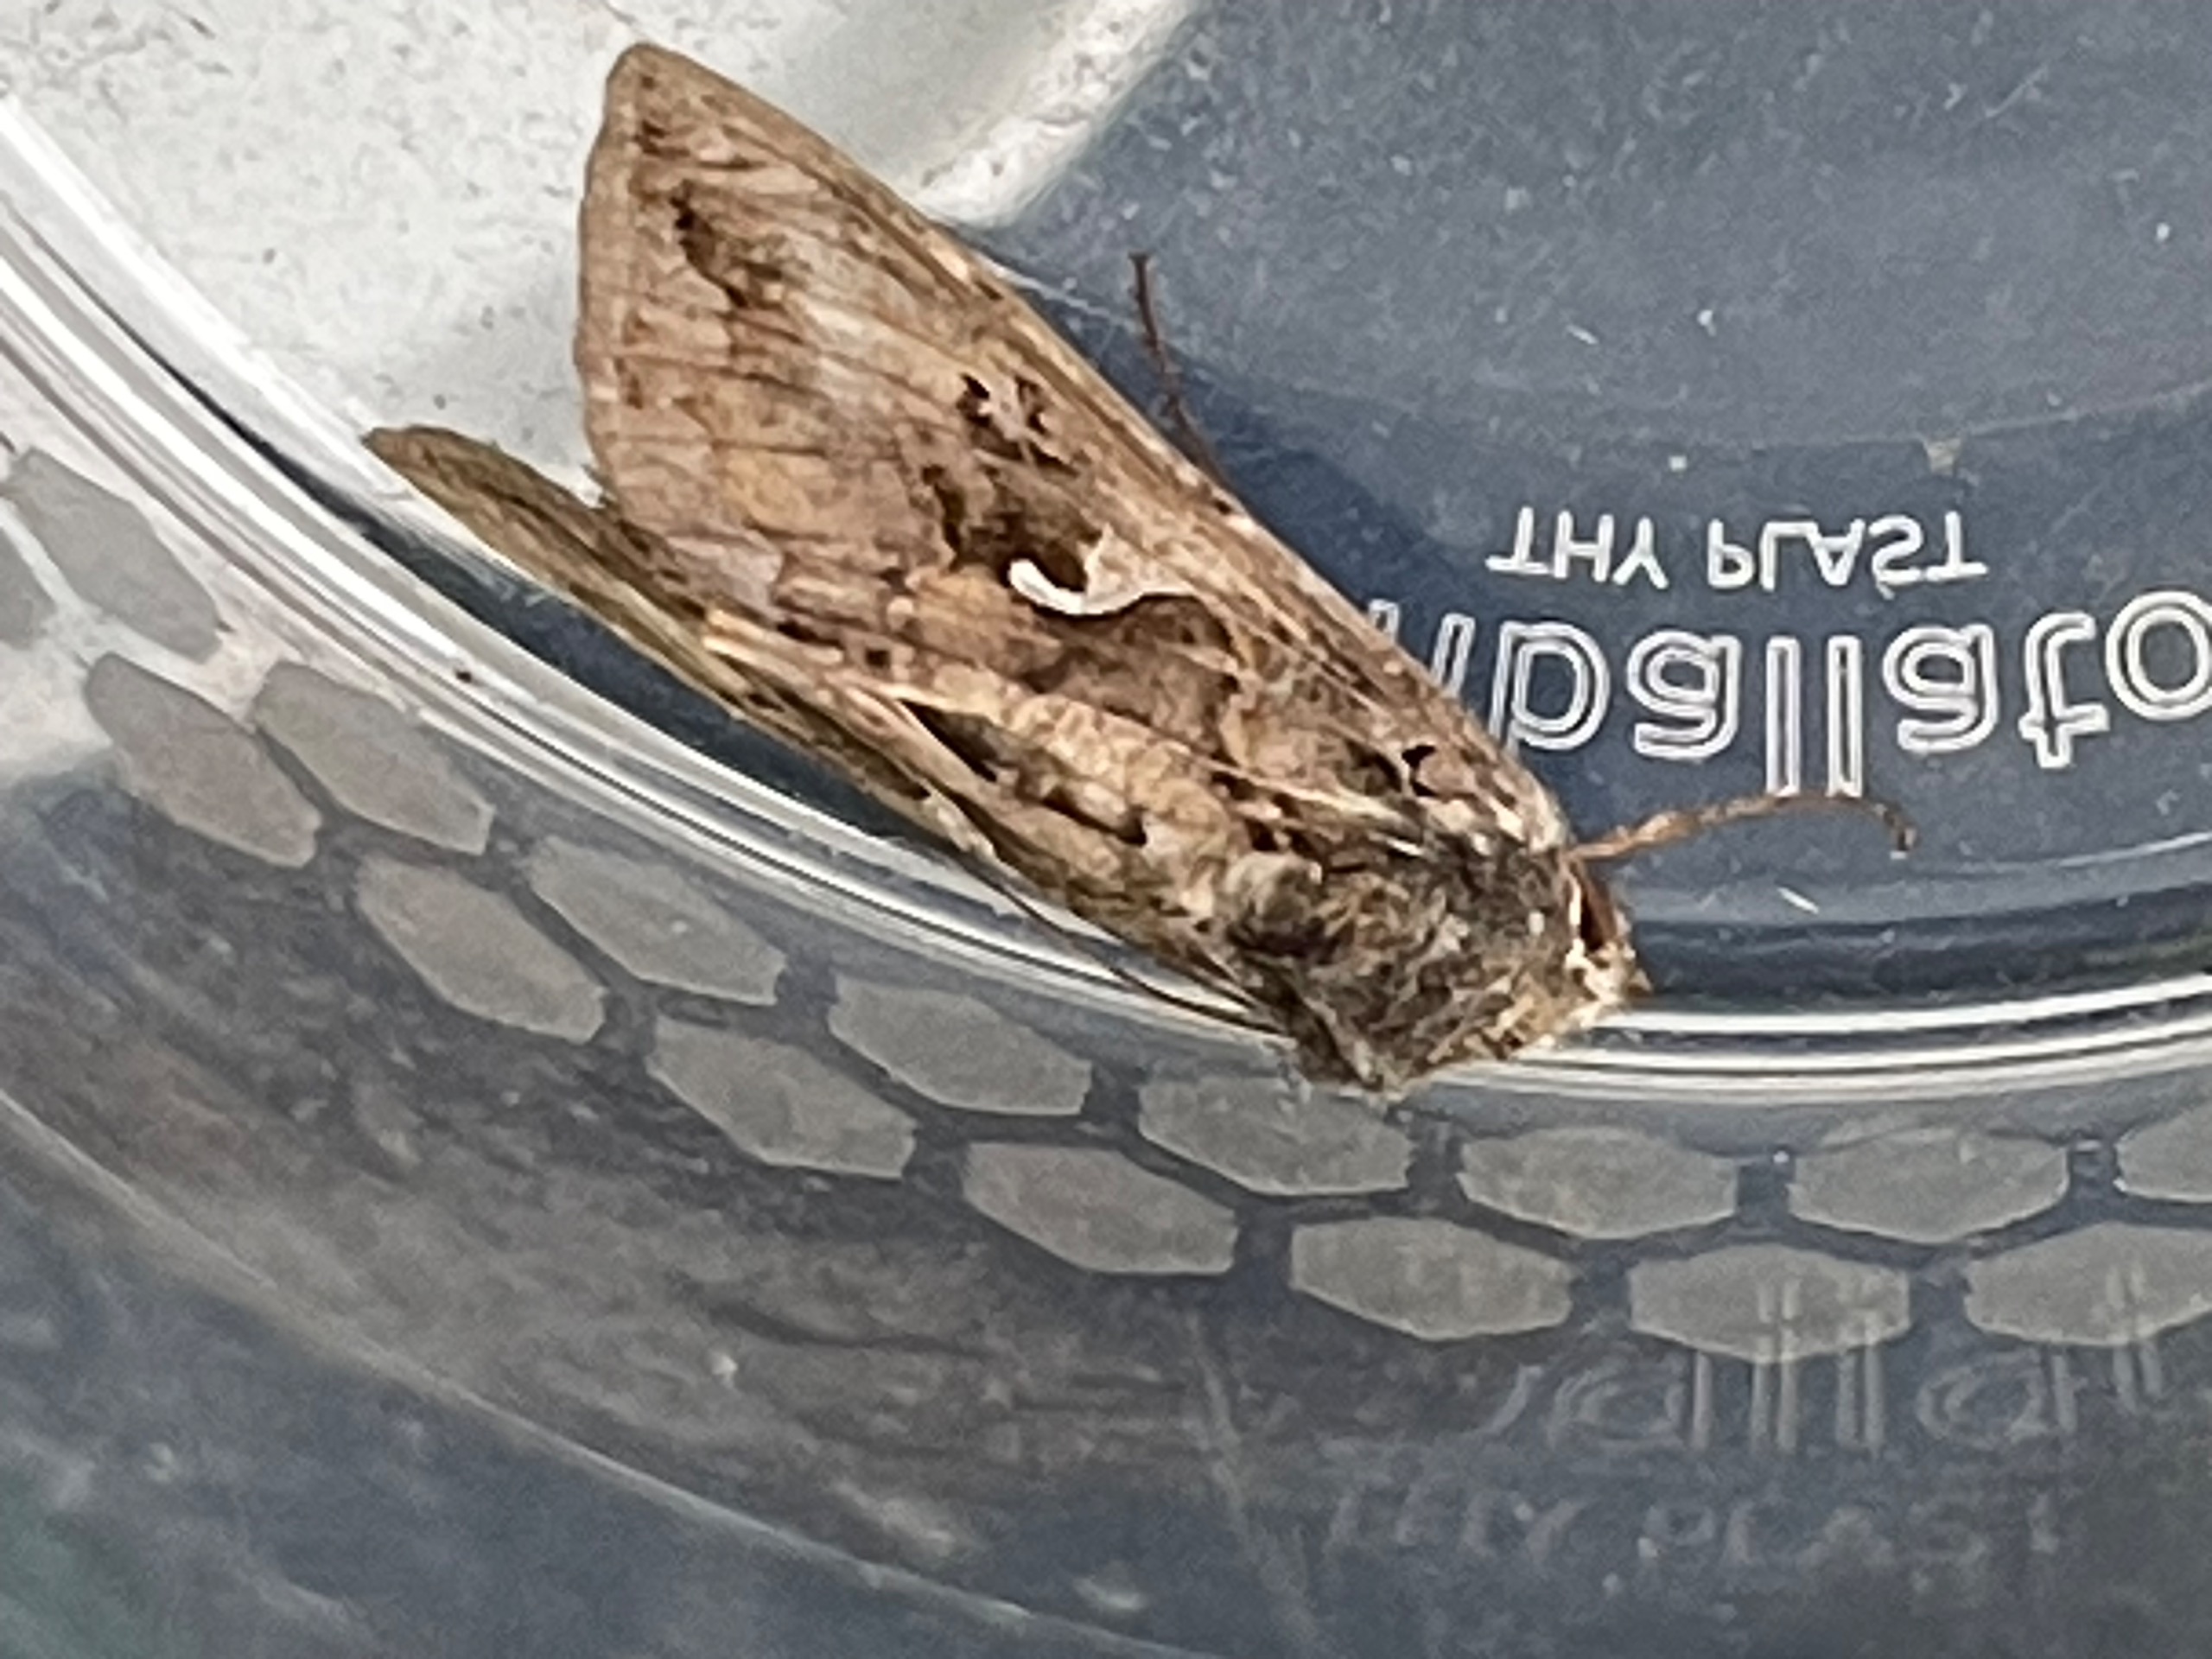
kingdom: Animalia
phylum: Arthropoda
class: Insecta
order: Lepidoptera
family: Noctuidae
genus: Autographa
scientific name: Autographa gamma
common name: Gammaugle
